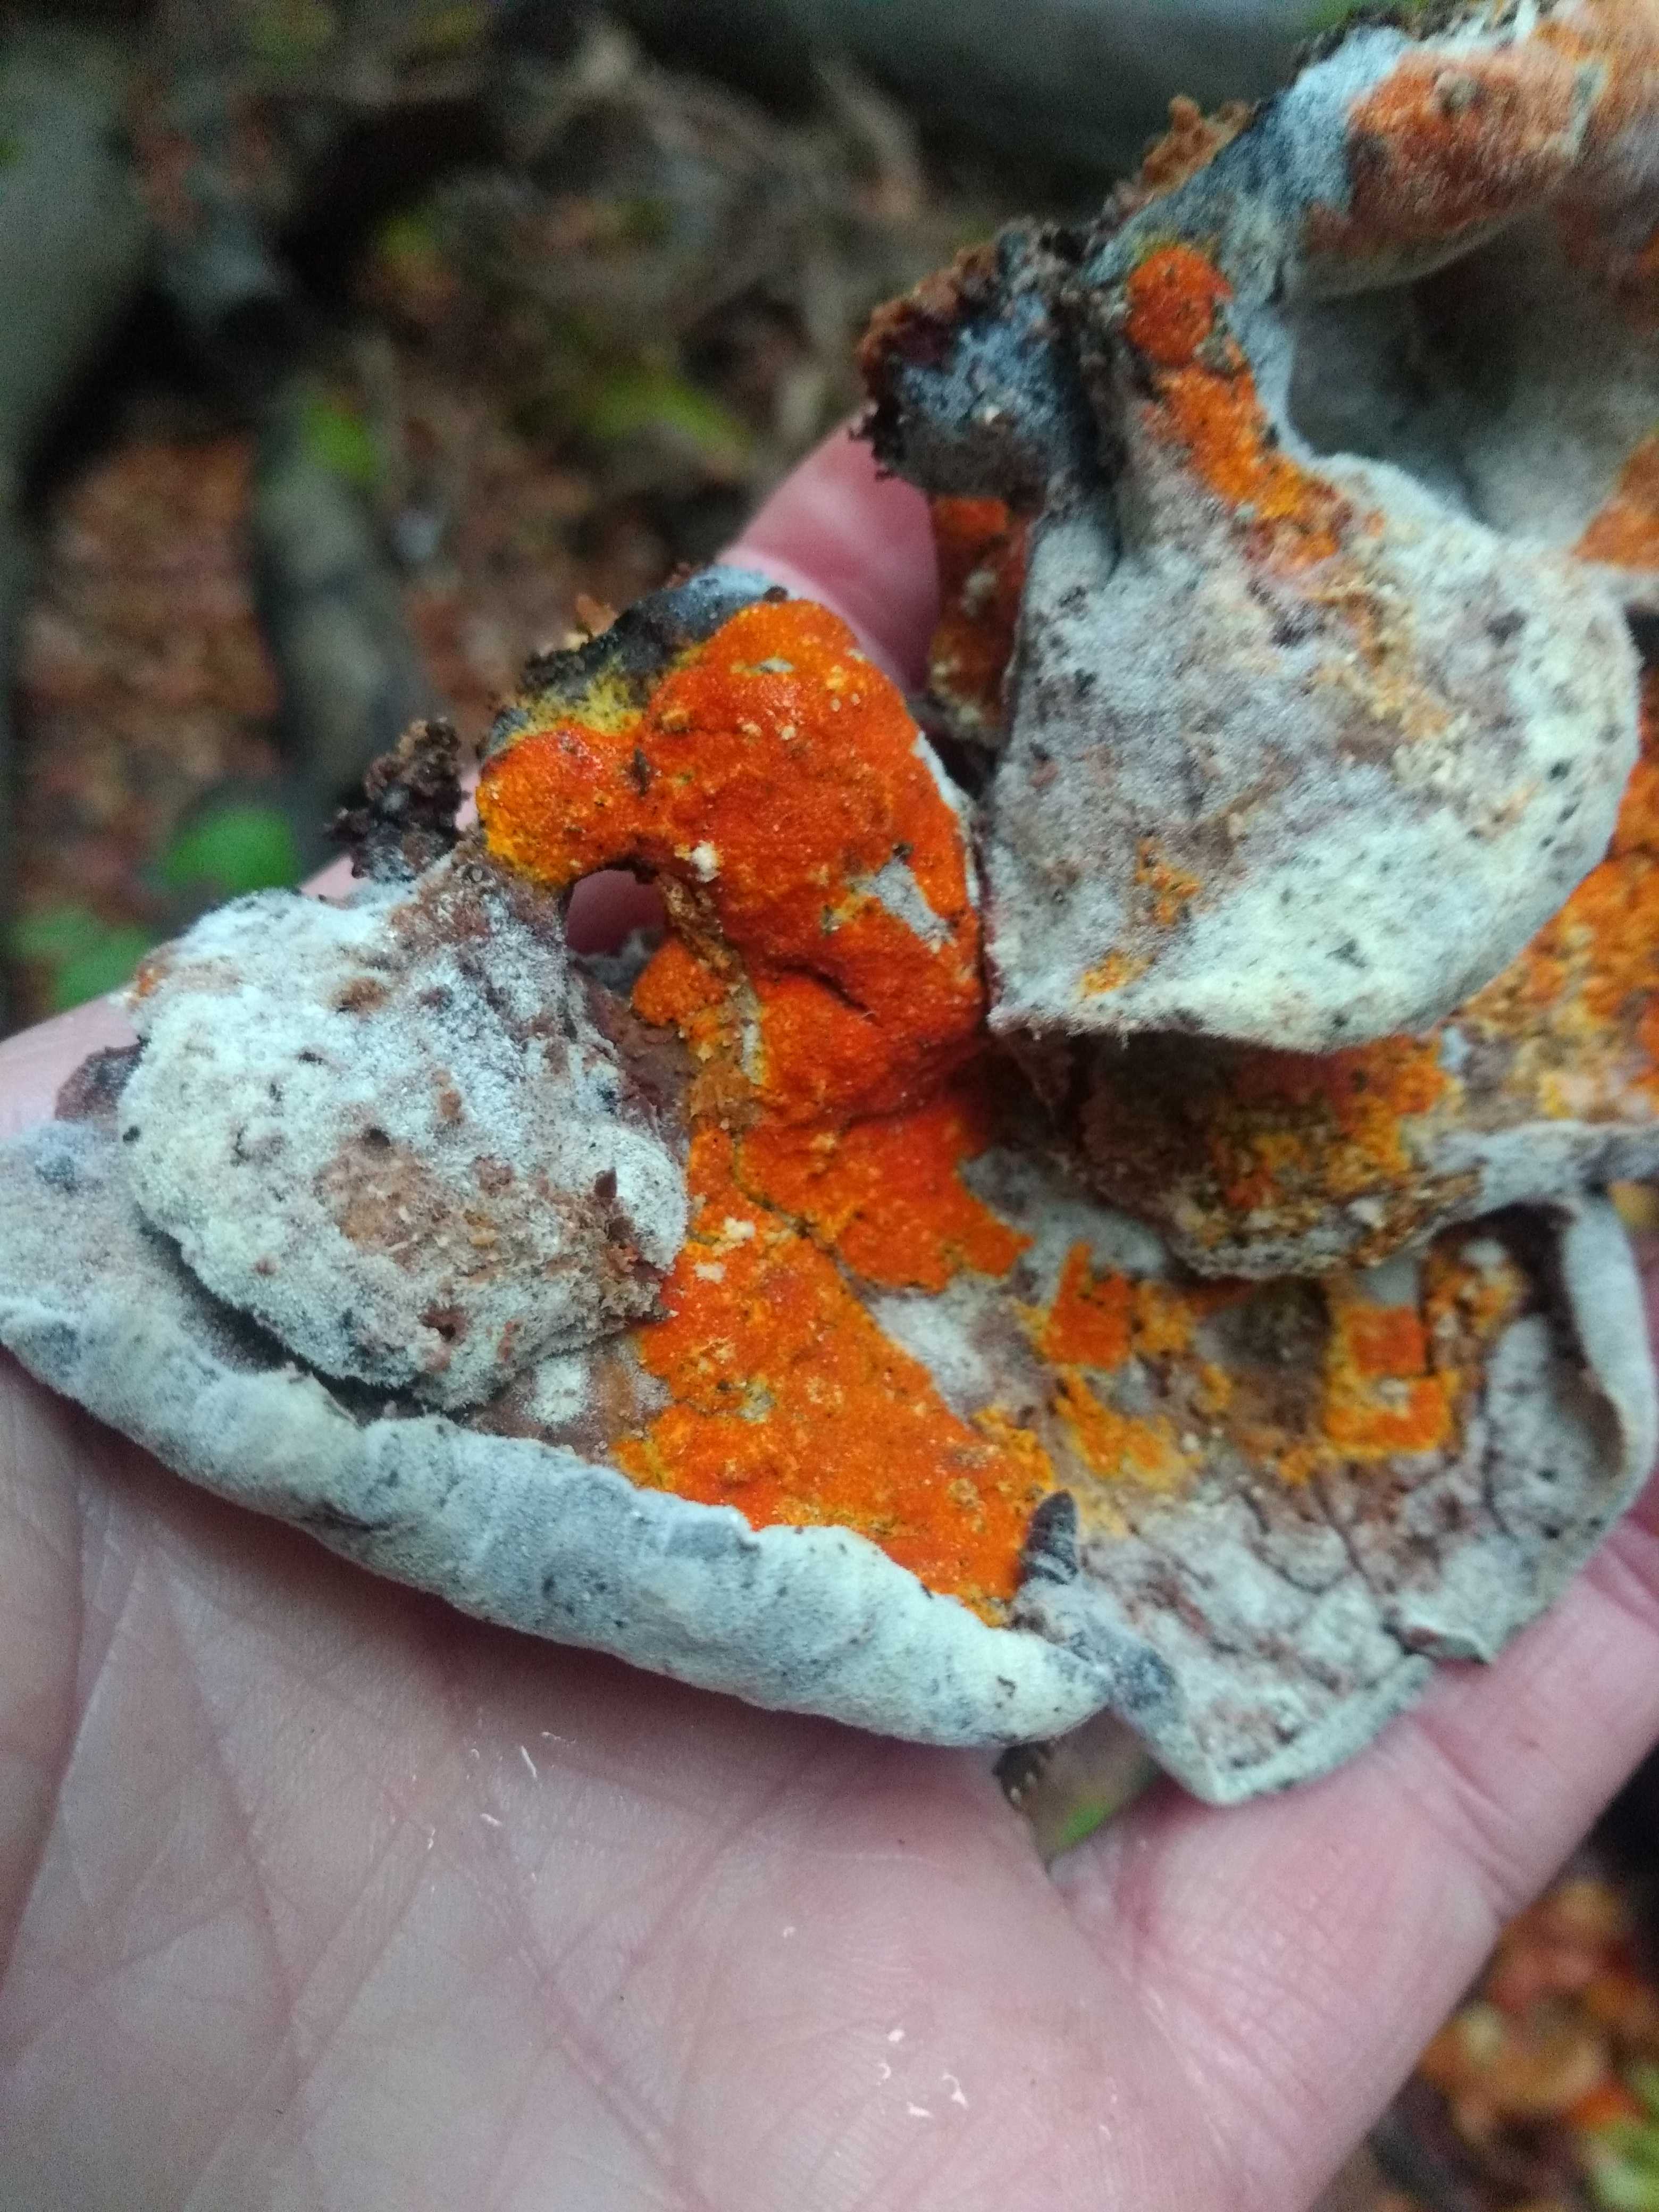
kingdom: Fungi
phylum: Ascomycota
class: Sordariomycetes
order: Hypocreales
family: Hypocreaceae
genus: Hypomyces
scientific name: Hypomyces aurantius
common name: almindelig snylteskorpe
